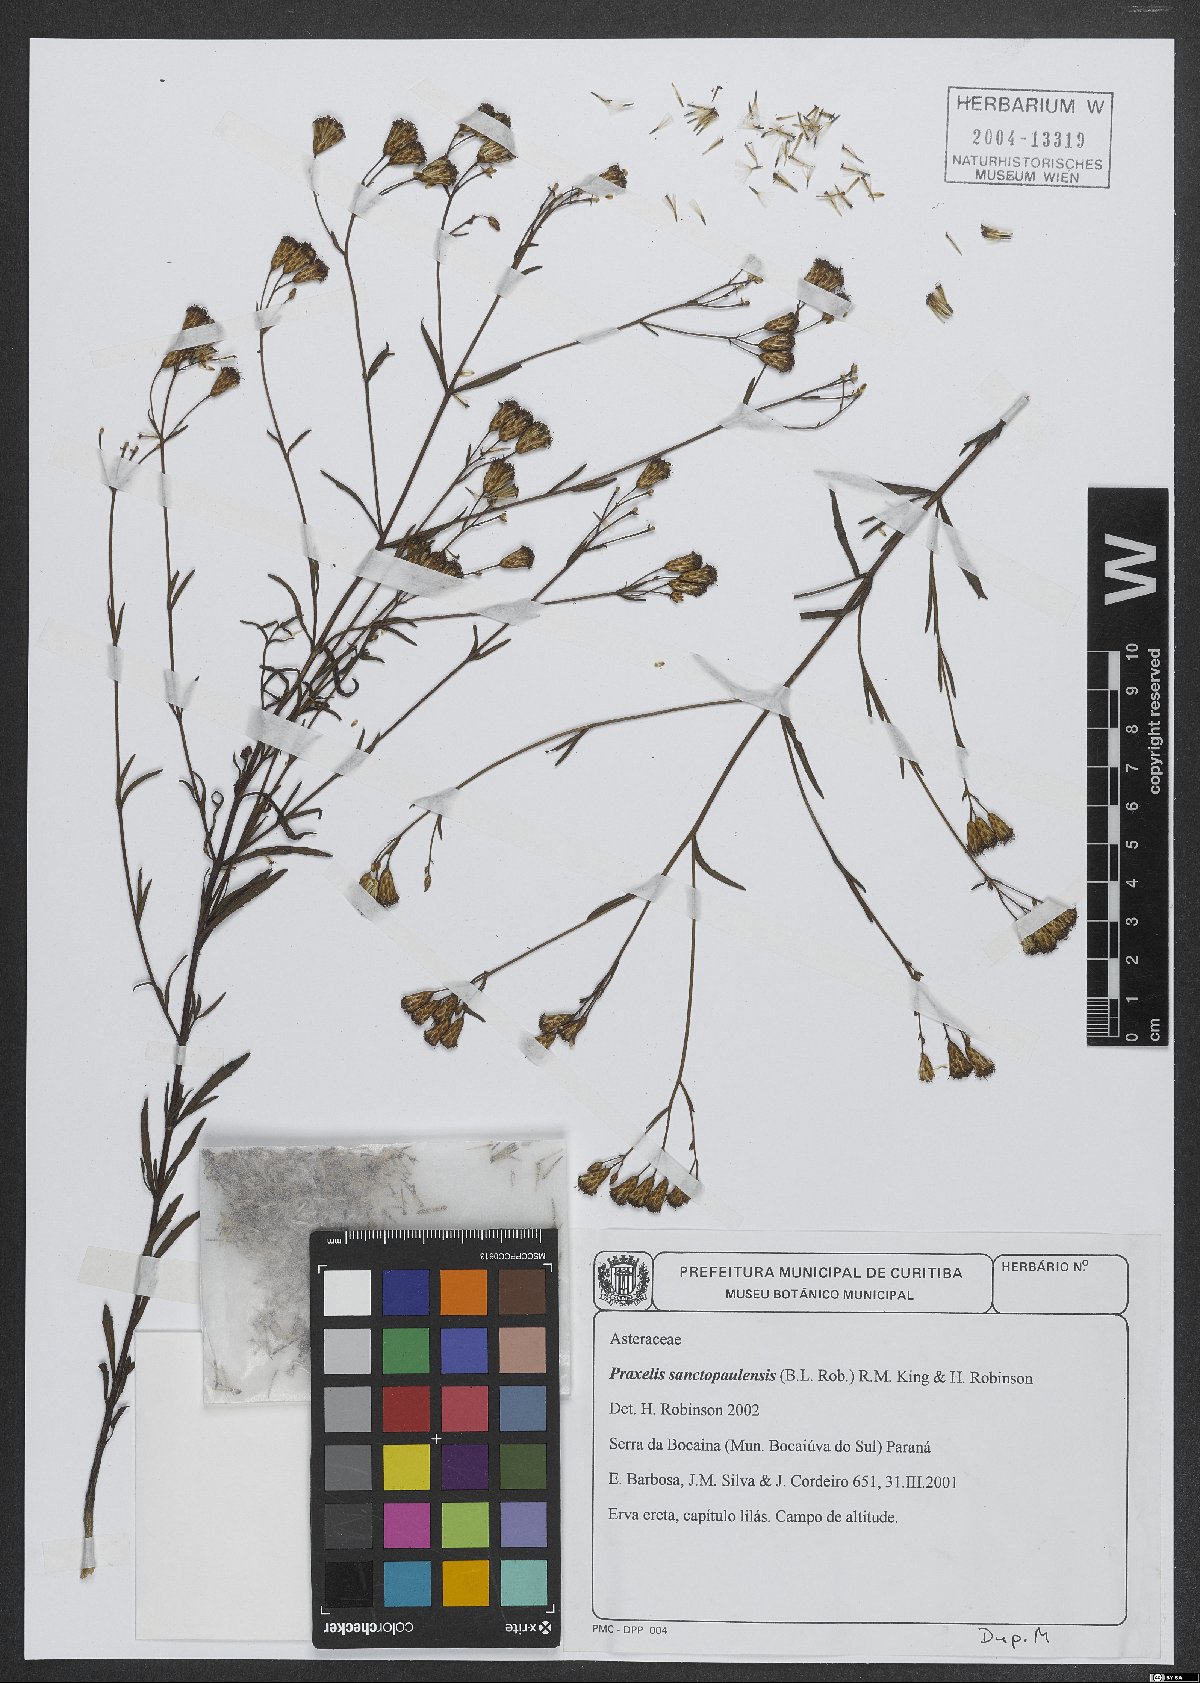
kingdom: Plantae
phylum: Tracheophyta
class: Magnoliopsida
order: Asterales
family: Asteraceae
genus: Praxelis
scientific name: Praxelis sanctopaulensis
